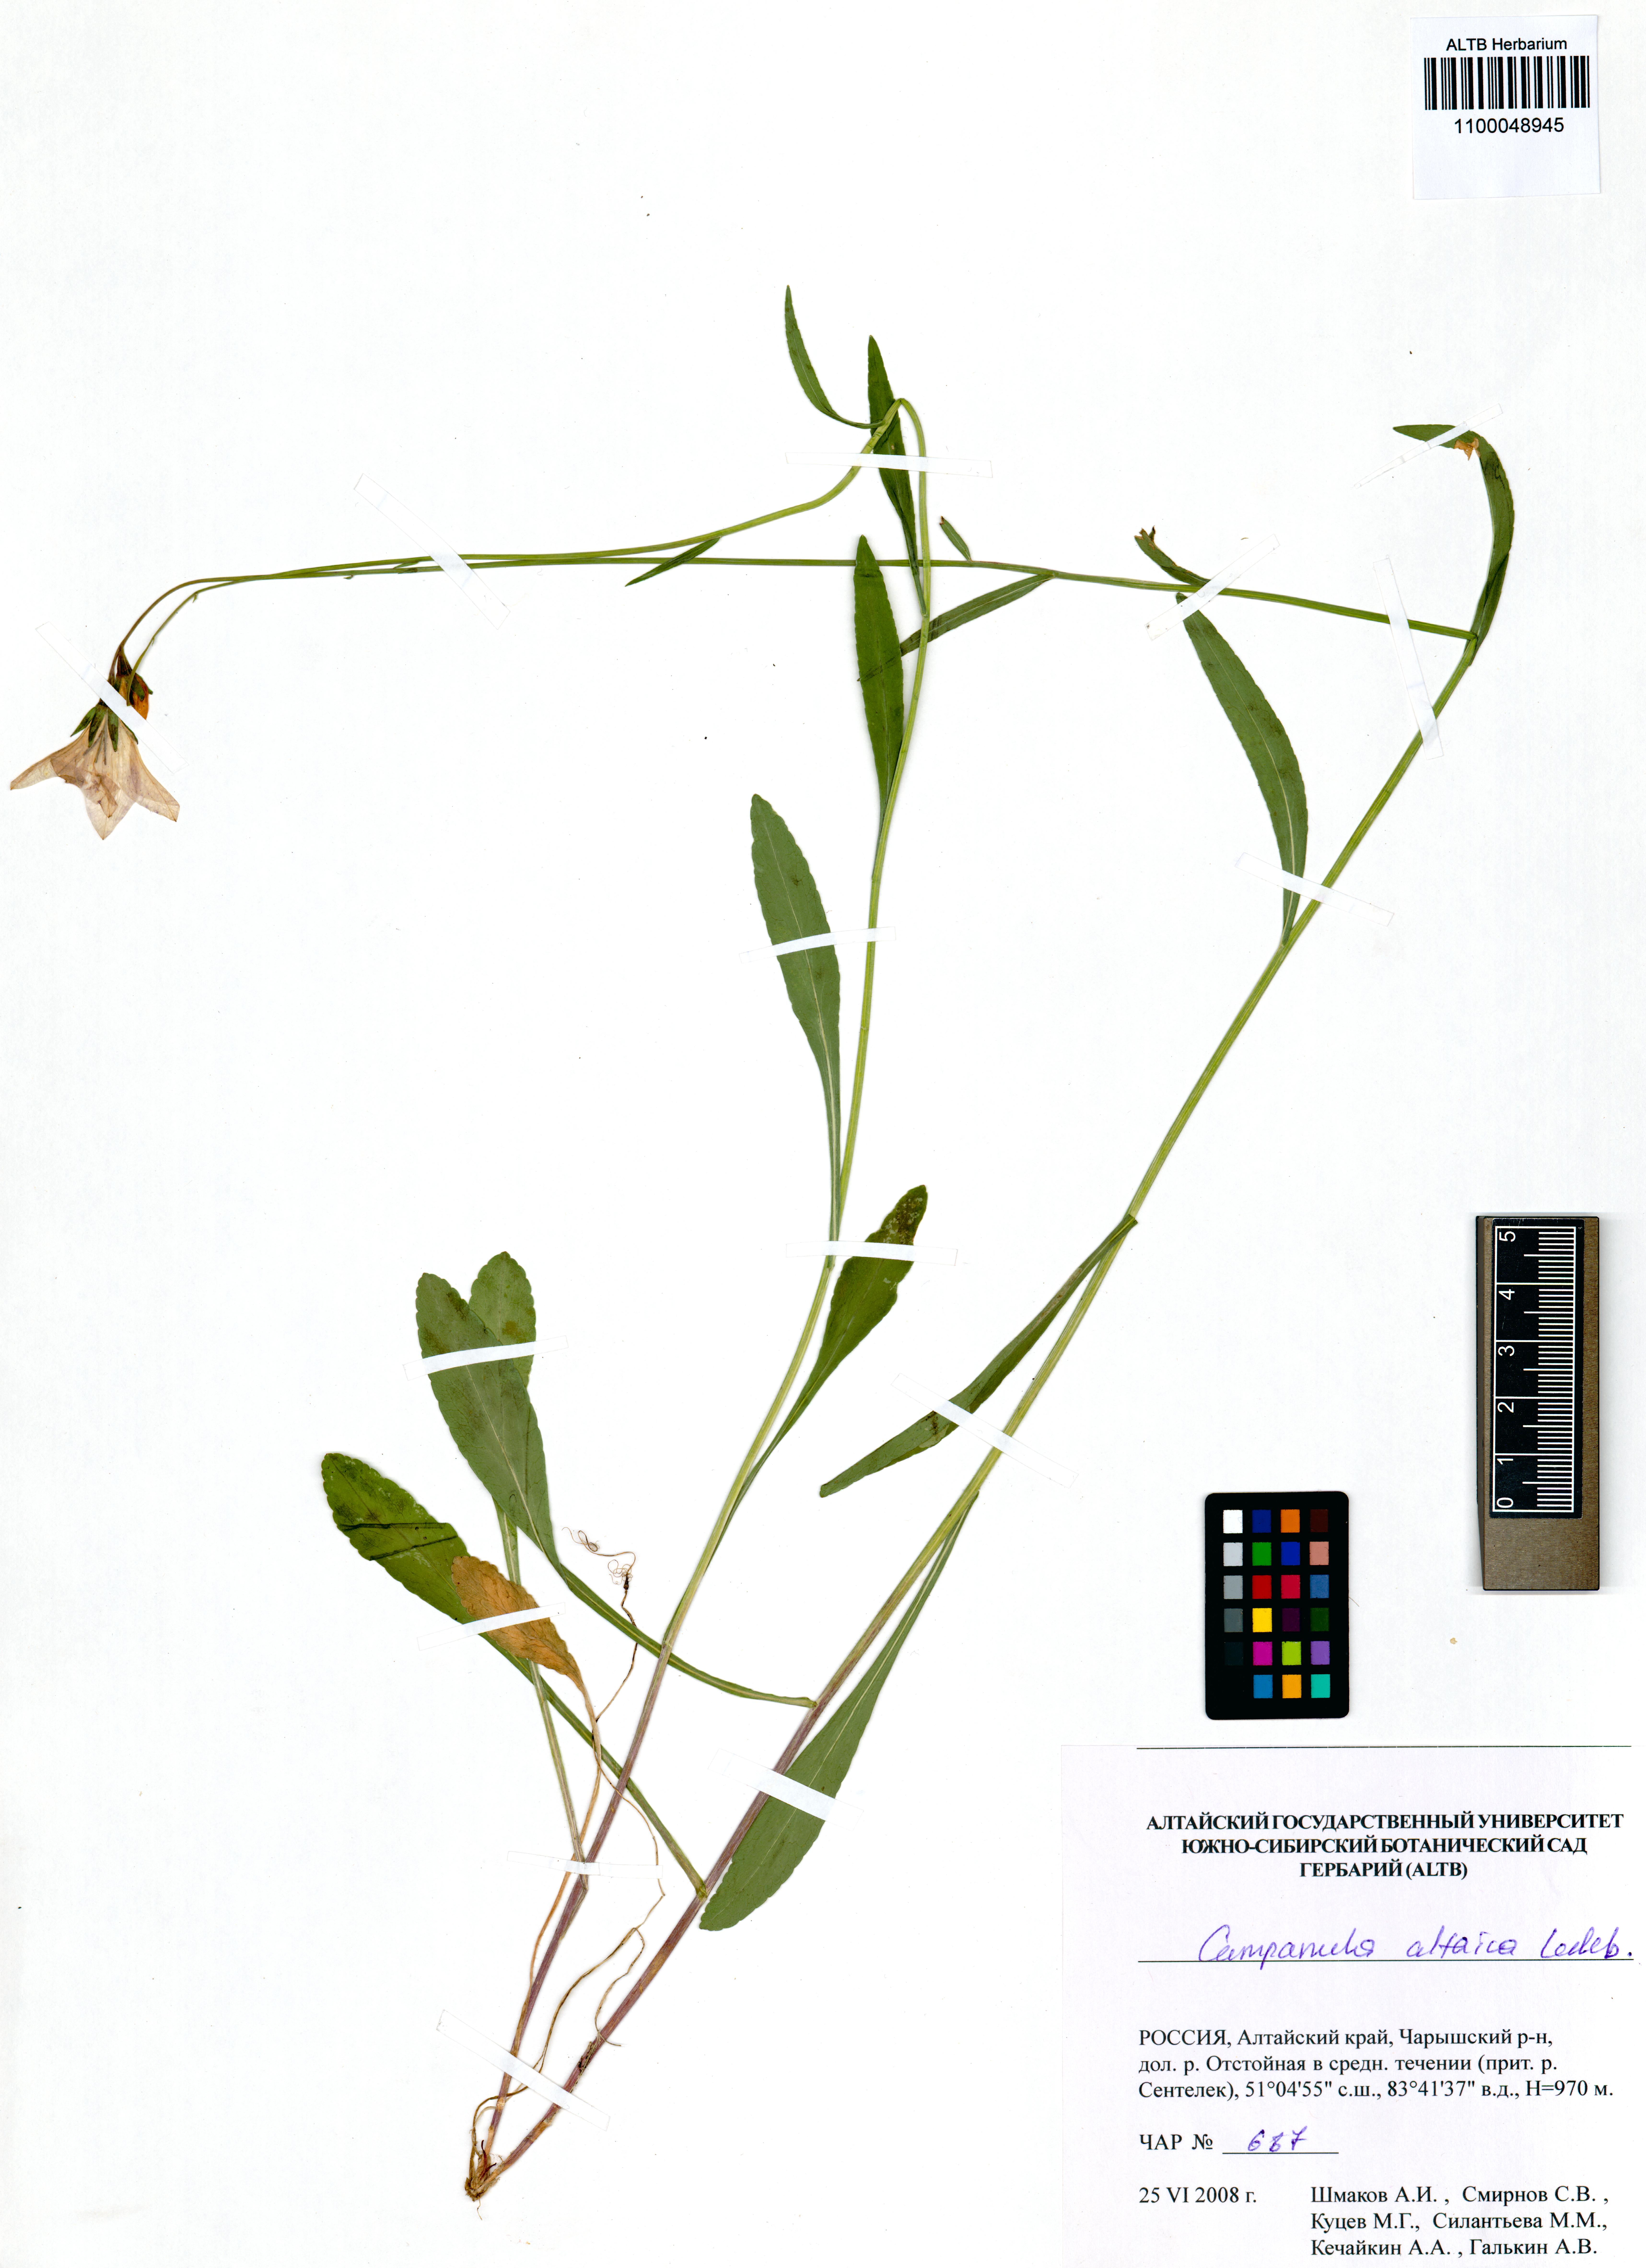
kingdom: Plantae
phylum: Tracheophyta
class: Magnoliopsida
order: Asterales
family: Campanulaceae
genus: Campanula
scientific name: Campanula stevenii
